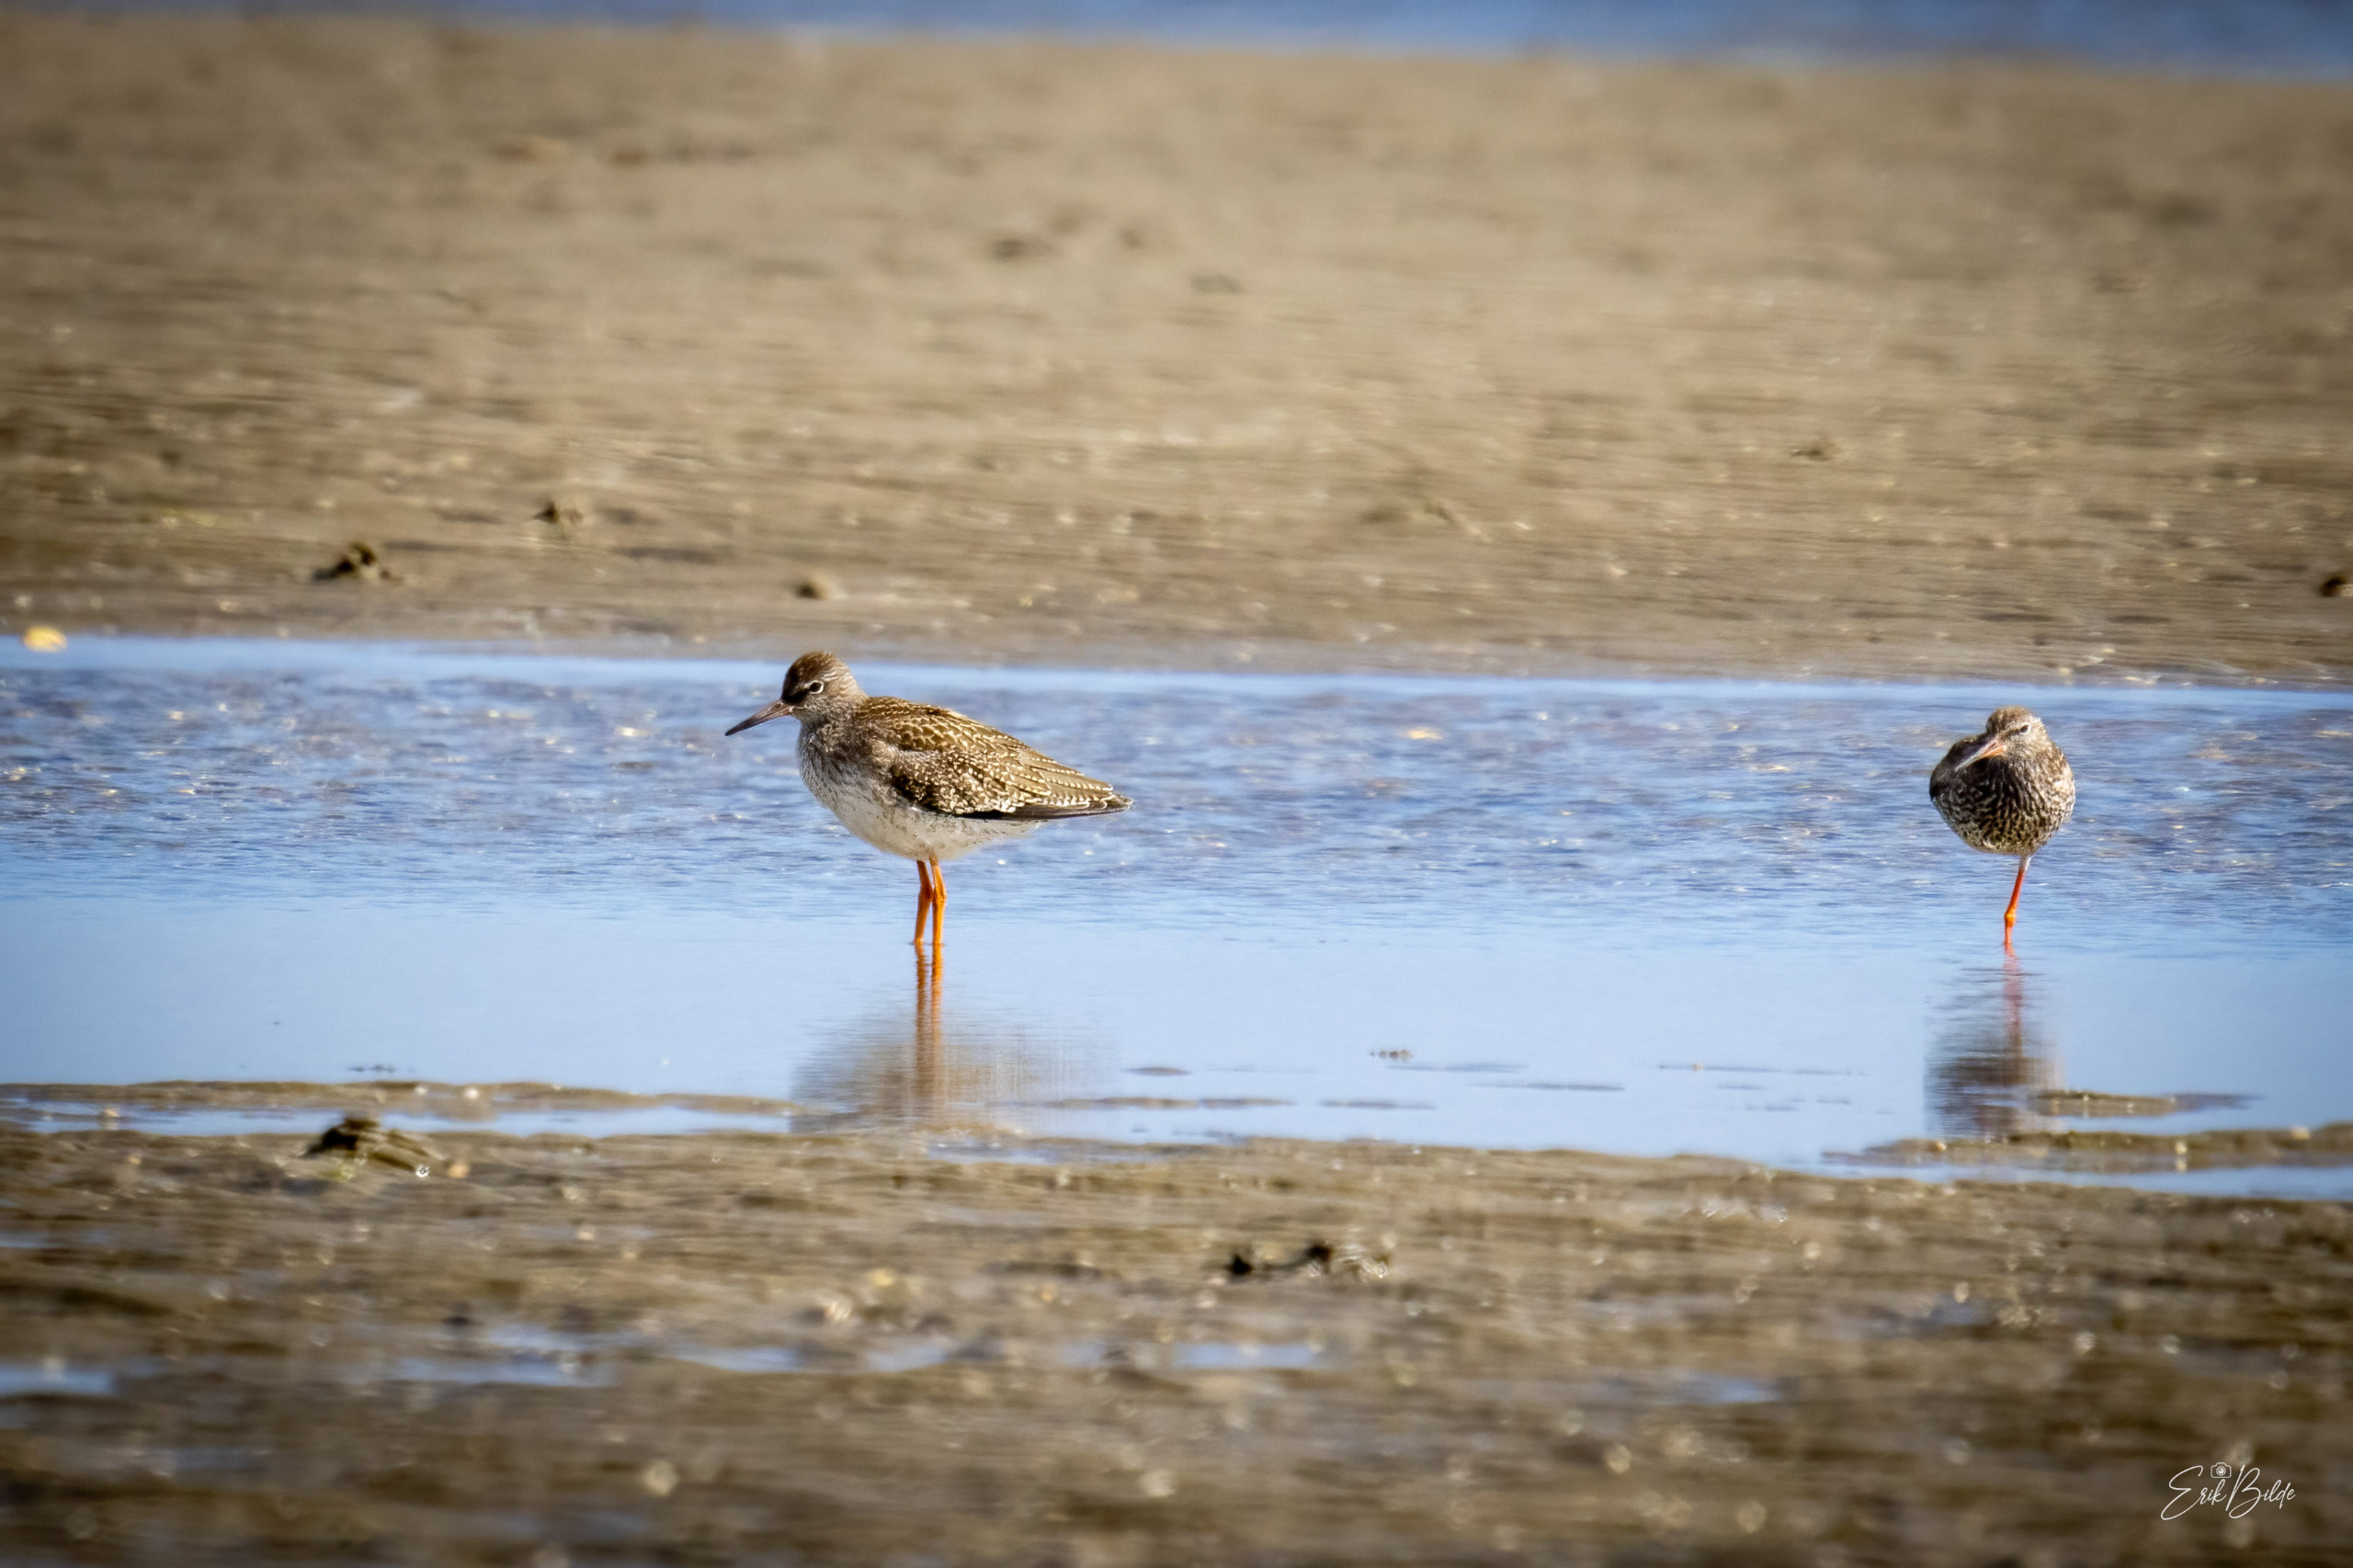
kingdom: Animalia
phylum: Chordata
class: Aves
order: Charadriiformes
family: Scolopacidae
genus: Tringa
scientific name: Tringa totanus
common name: Rødben
